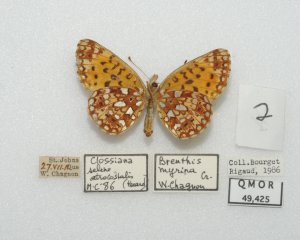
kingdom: Animalia
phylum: Arthropoda
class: Insecta
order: Lepidoptera
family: Nymphalidae
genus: Boloria
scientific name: Boloria selene
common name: Silver-bordered Fritillary
